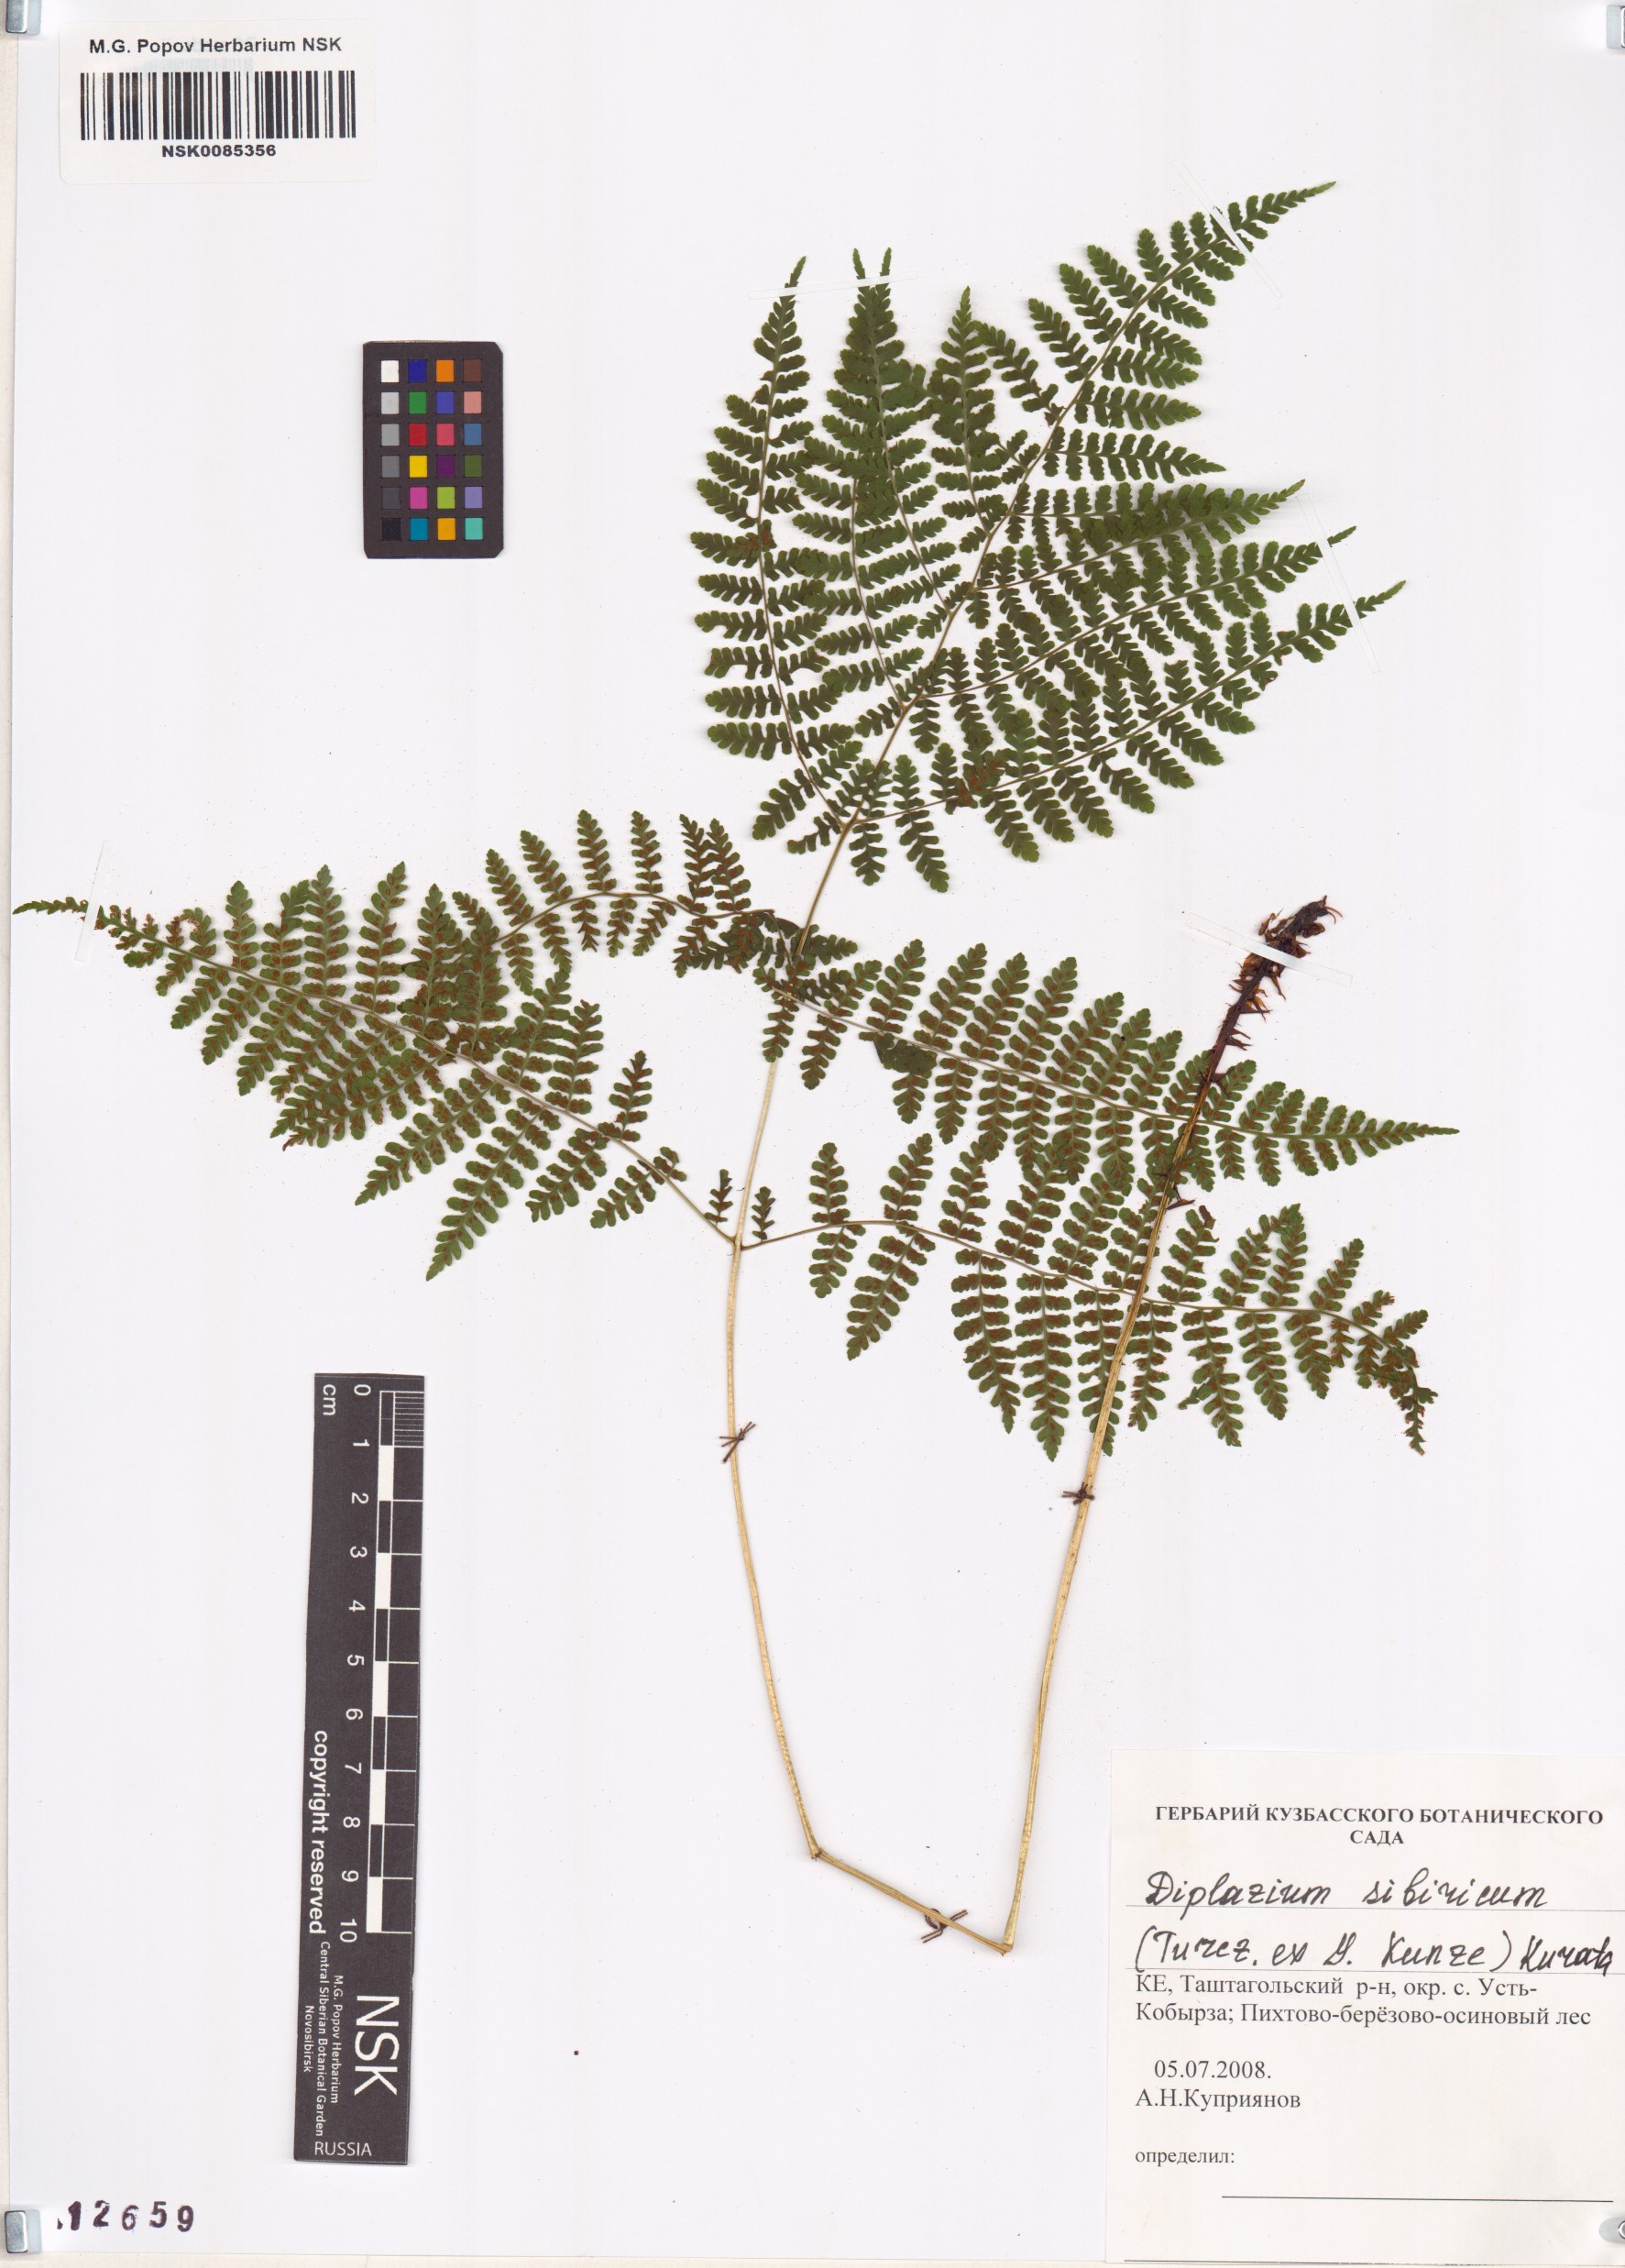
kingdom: Plantae
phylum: Tracheophyta
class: Polypodiopsida
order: Polypodiales
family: Athyriaceae
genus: Diplazium
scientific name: Diplazium sibiricum
